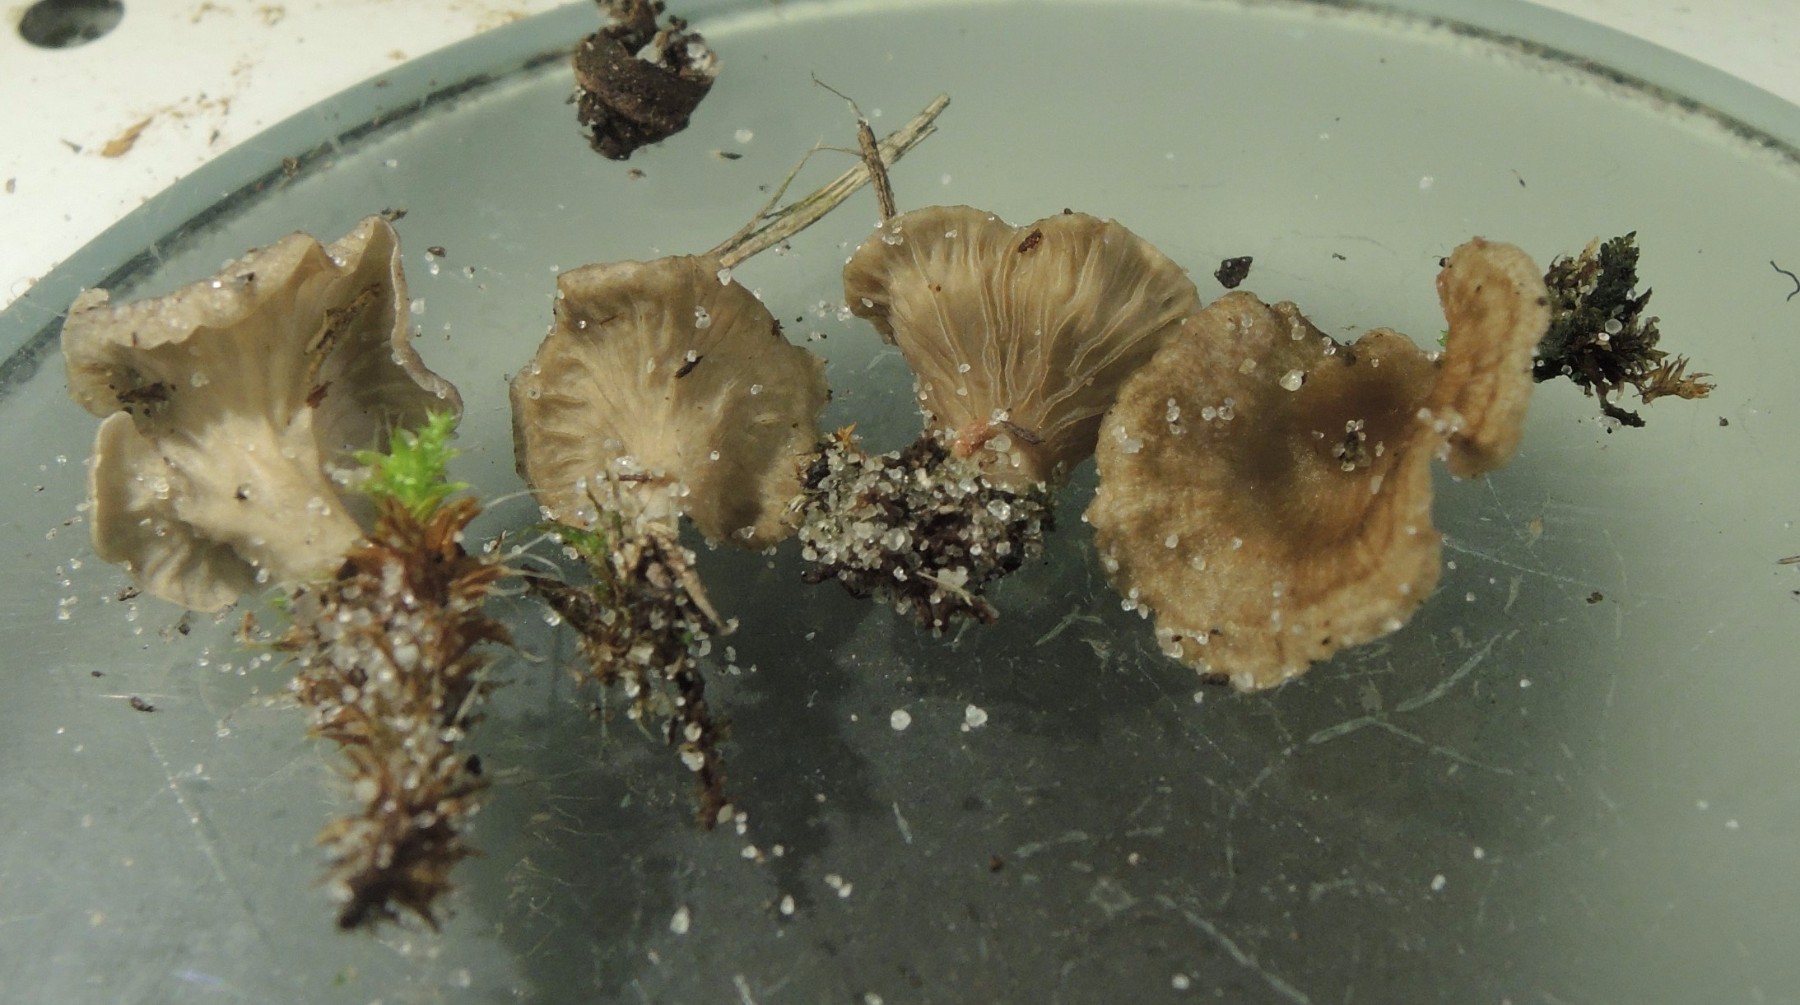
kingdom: Fungi
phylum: Basidiomycota
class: Agaricomycetes
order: Agaricales
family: Hygrophoraceae
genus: Arrhenia
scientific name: Arrhenia spathulata
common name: skæv fontænehat
